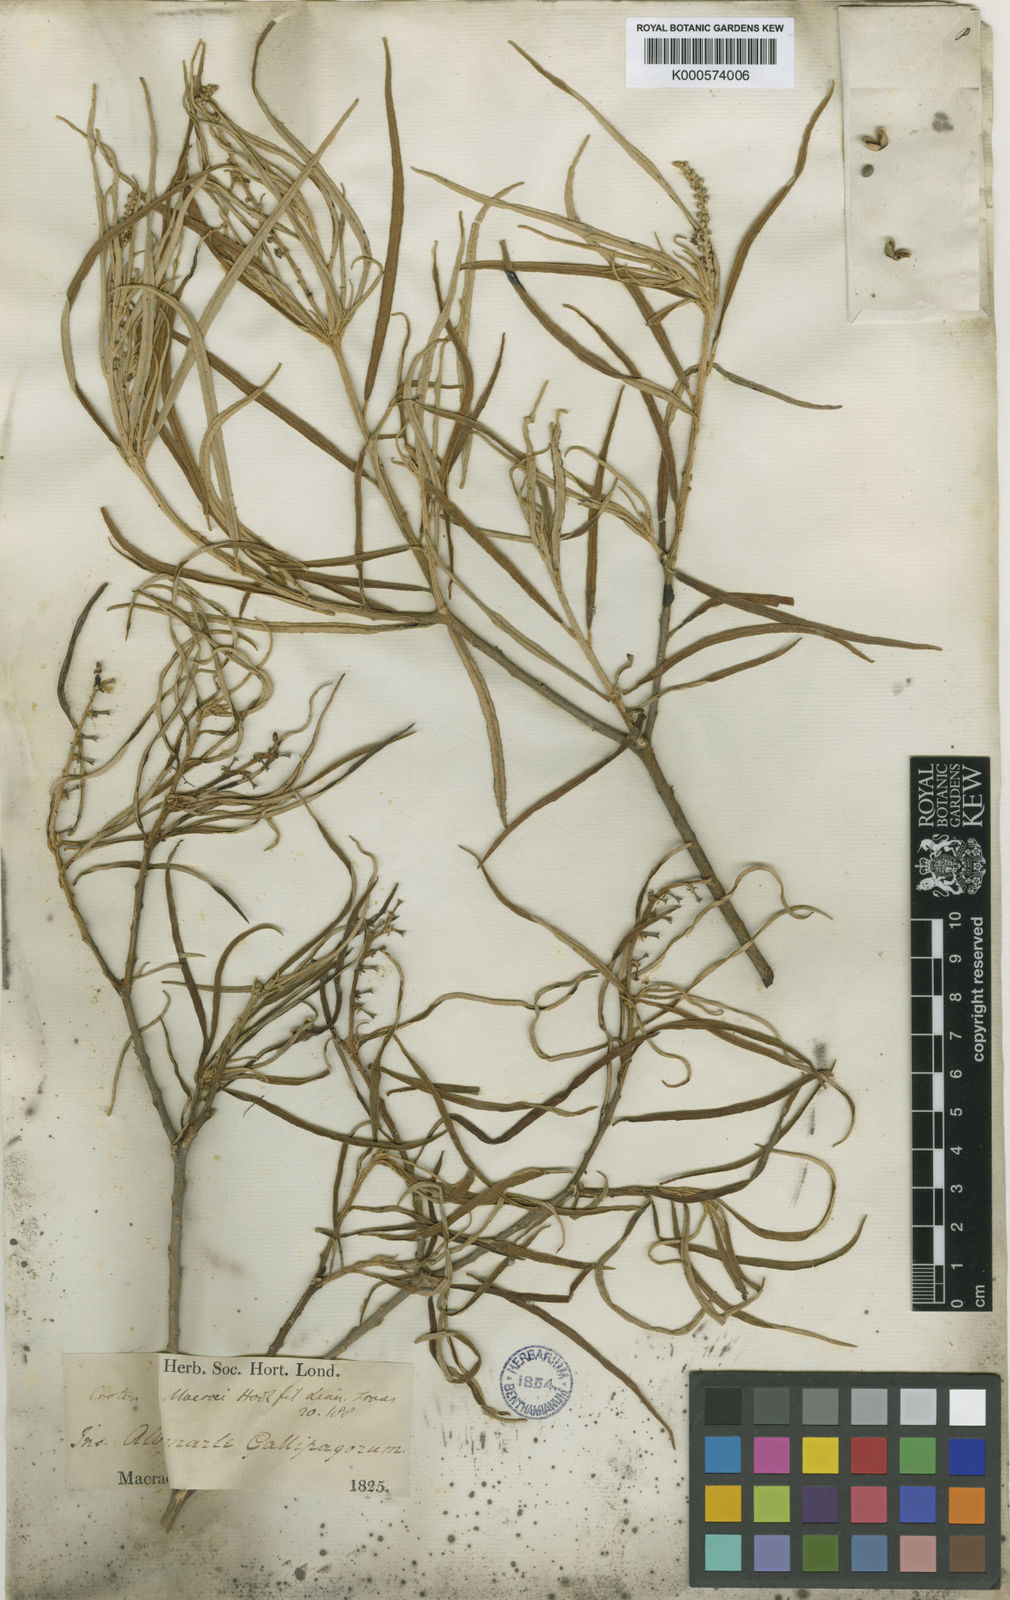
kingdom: Plantae
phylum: Tracheophyta
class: Magnoliopsida
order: Malpighiales
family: Euphorbiaceae
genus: Croton
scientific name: Croton scouleri
